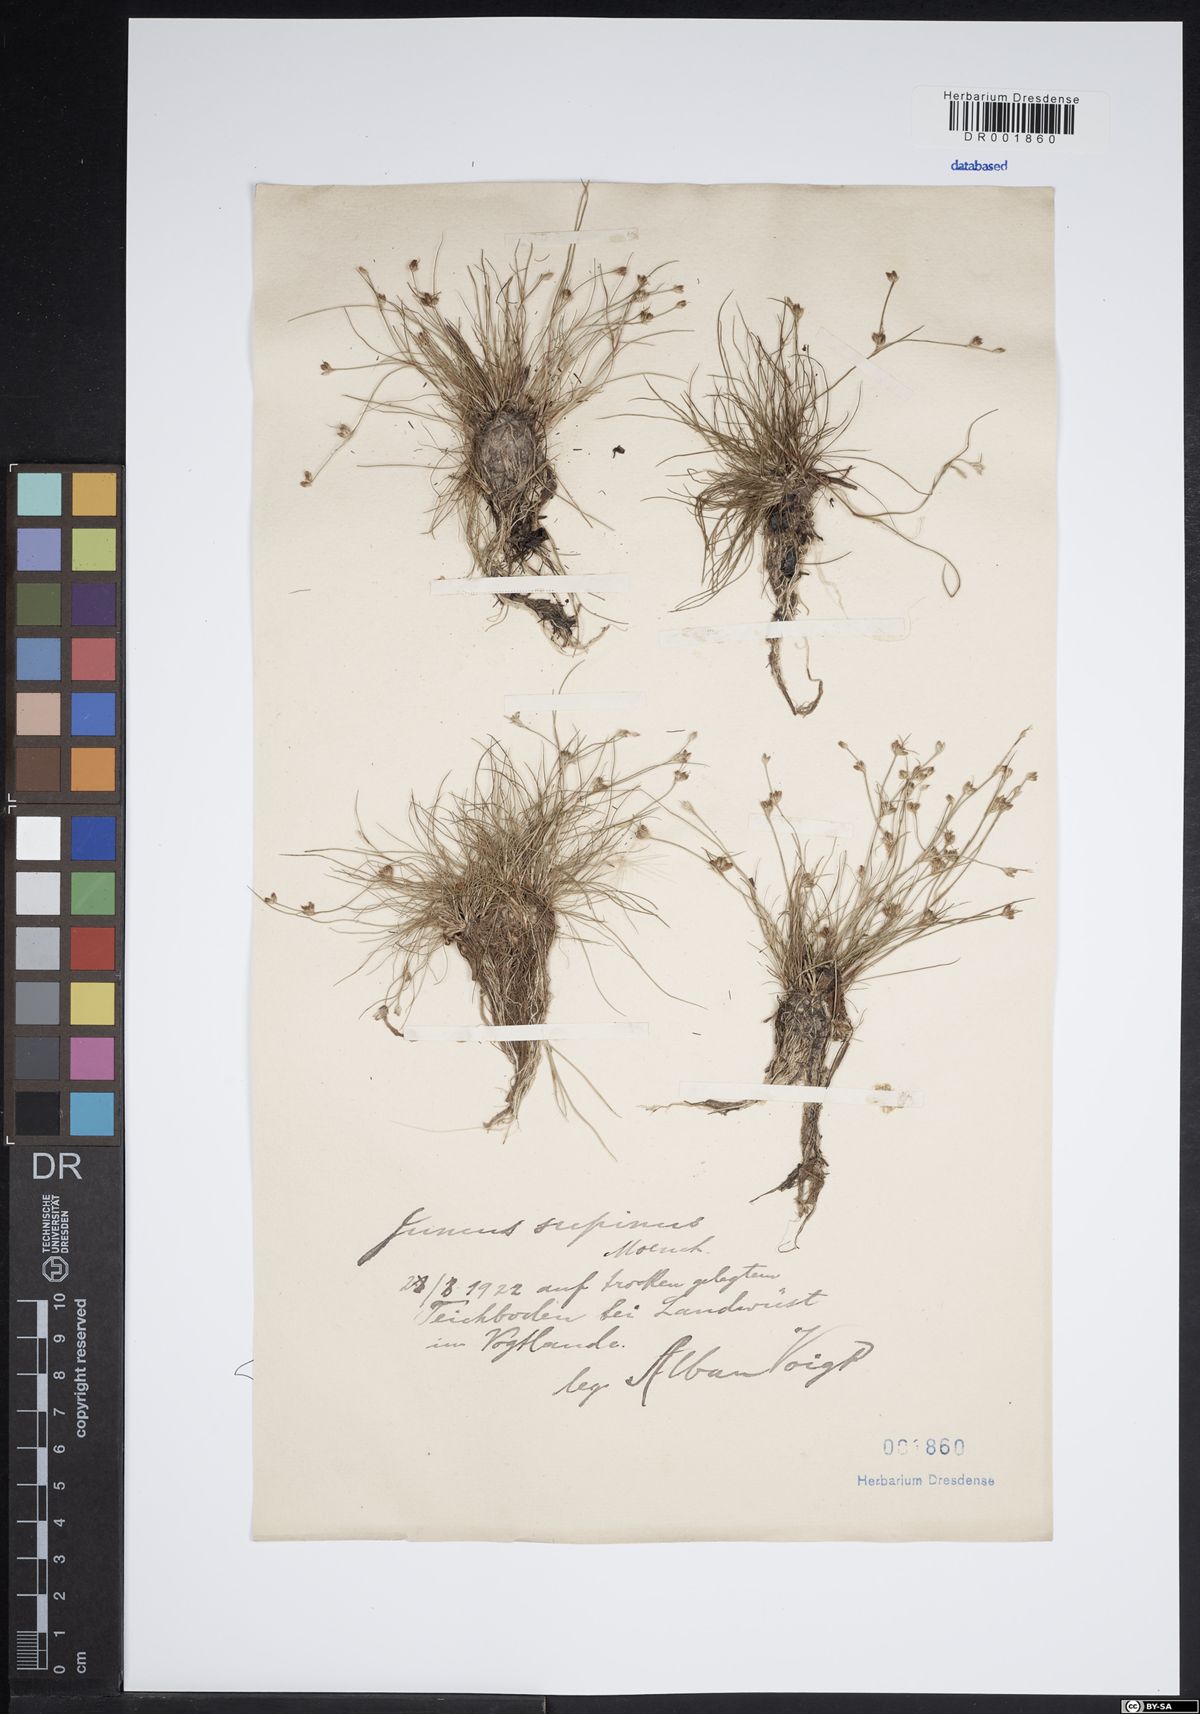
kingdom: Plantae
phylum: Tracheophyta
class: Liliopsida
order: Poales
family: Juncaceae
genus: Juncus
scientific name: Juncus bulbosus
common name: Bulbous rush
